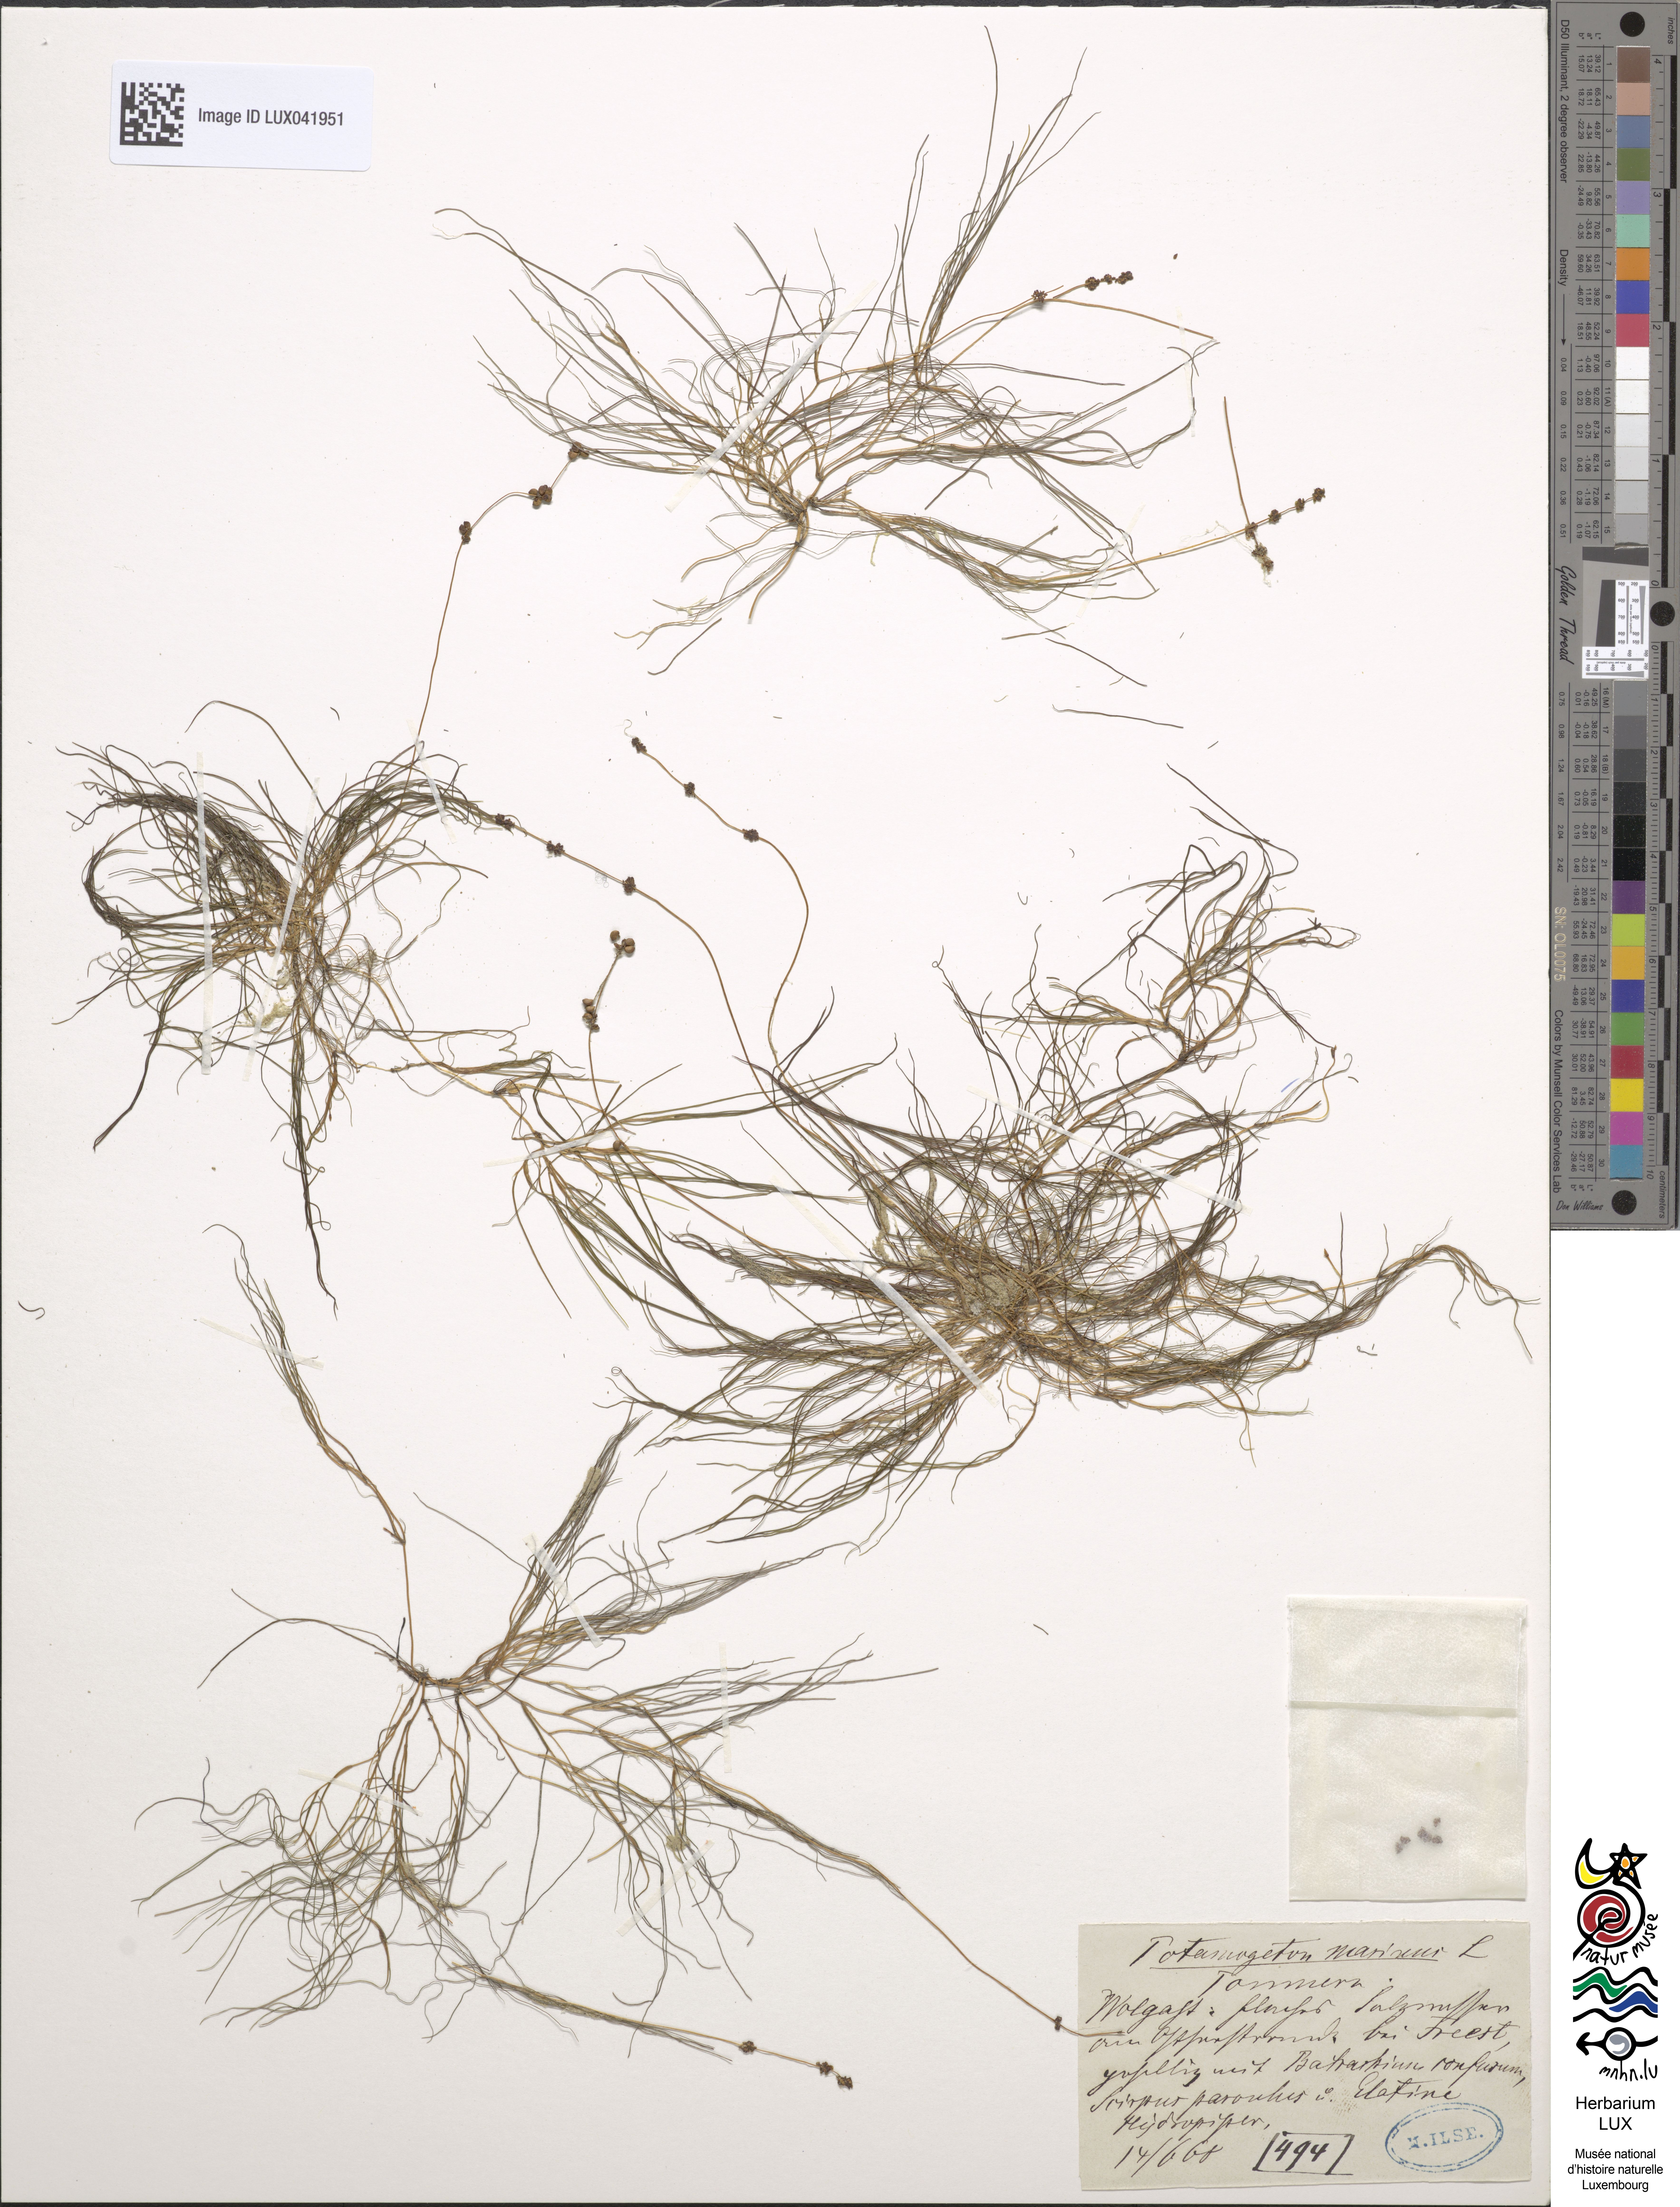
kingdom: Plantae
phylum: Tracheophyta
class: Liliopsida
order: Alismatales
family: Potamogetonaceae
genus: Stuckenia
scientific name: Stuckenia filiformis
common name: Alpine thread-leaved pondweed
